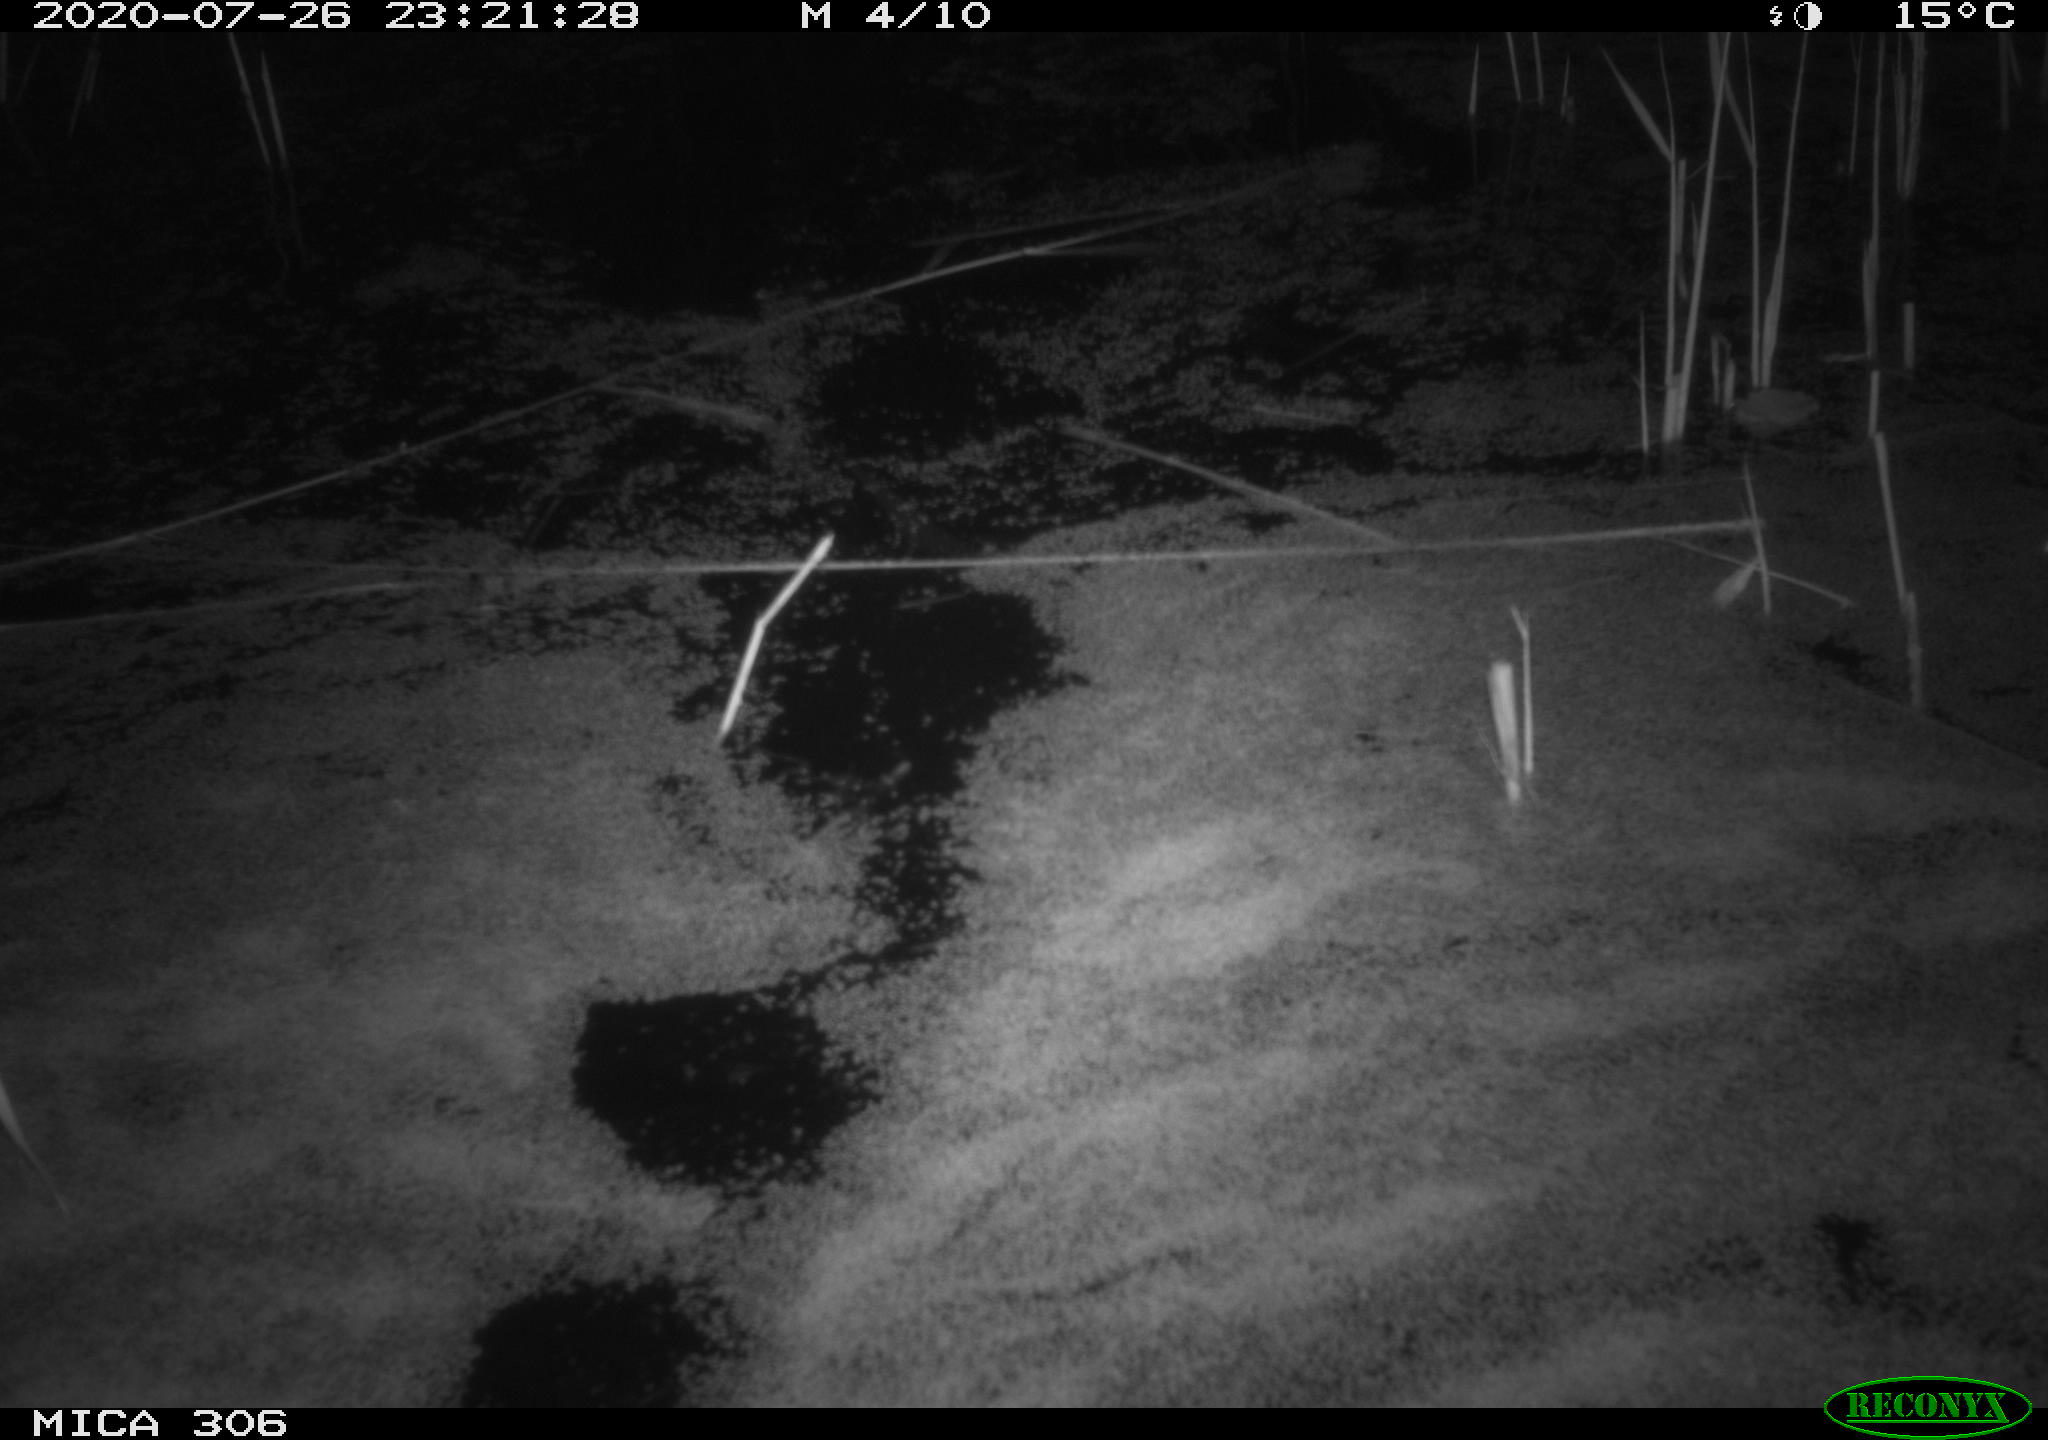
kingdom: Animalia
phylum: Chordata
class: Mammalia
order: Rodentia
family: Cricetidae
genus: Ondatra
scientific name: Ondatra zibethicus
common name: Muskrat
